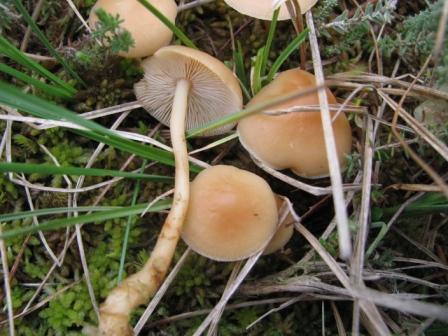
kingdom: Fungi
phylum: Basidiomycota
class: Agaricomycetes
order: Agaricales
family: Omphalotaceae
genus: Gymnopus
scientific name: Gymnopus aquosus
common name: bleg fladhat
